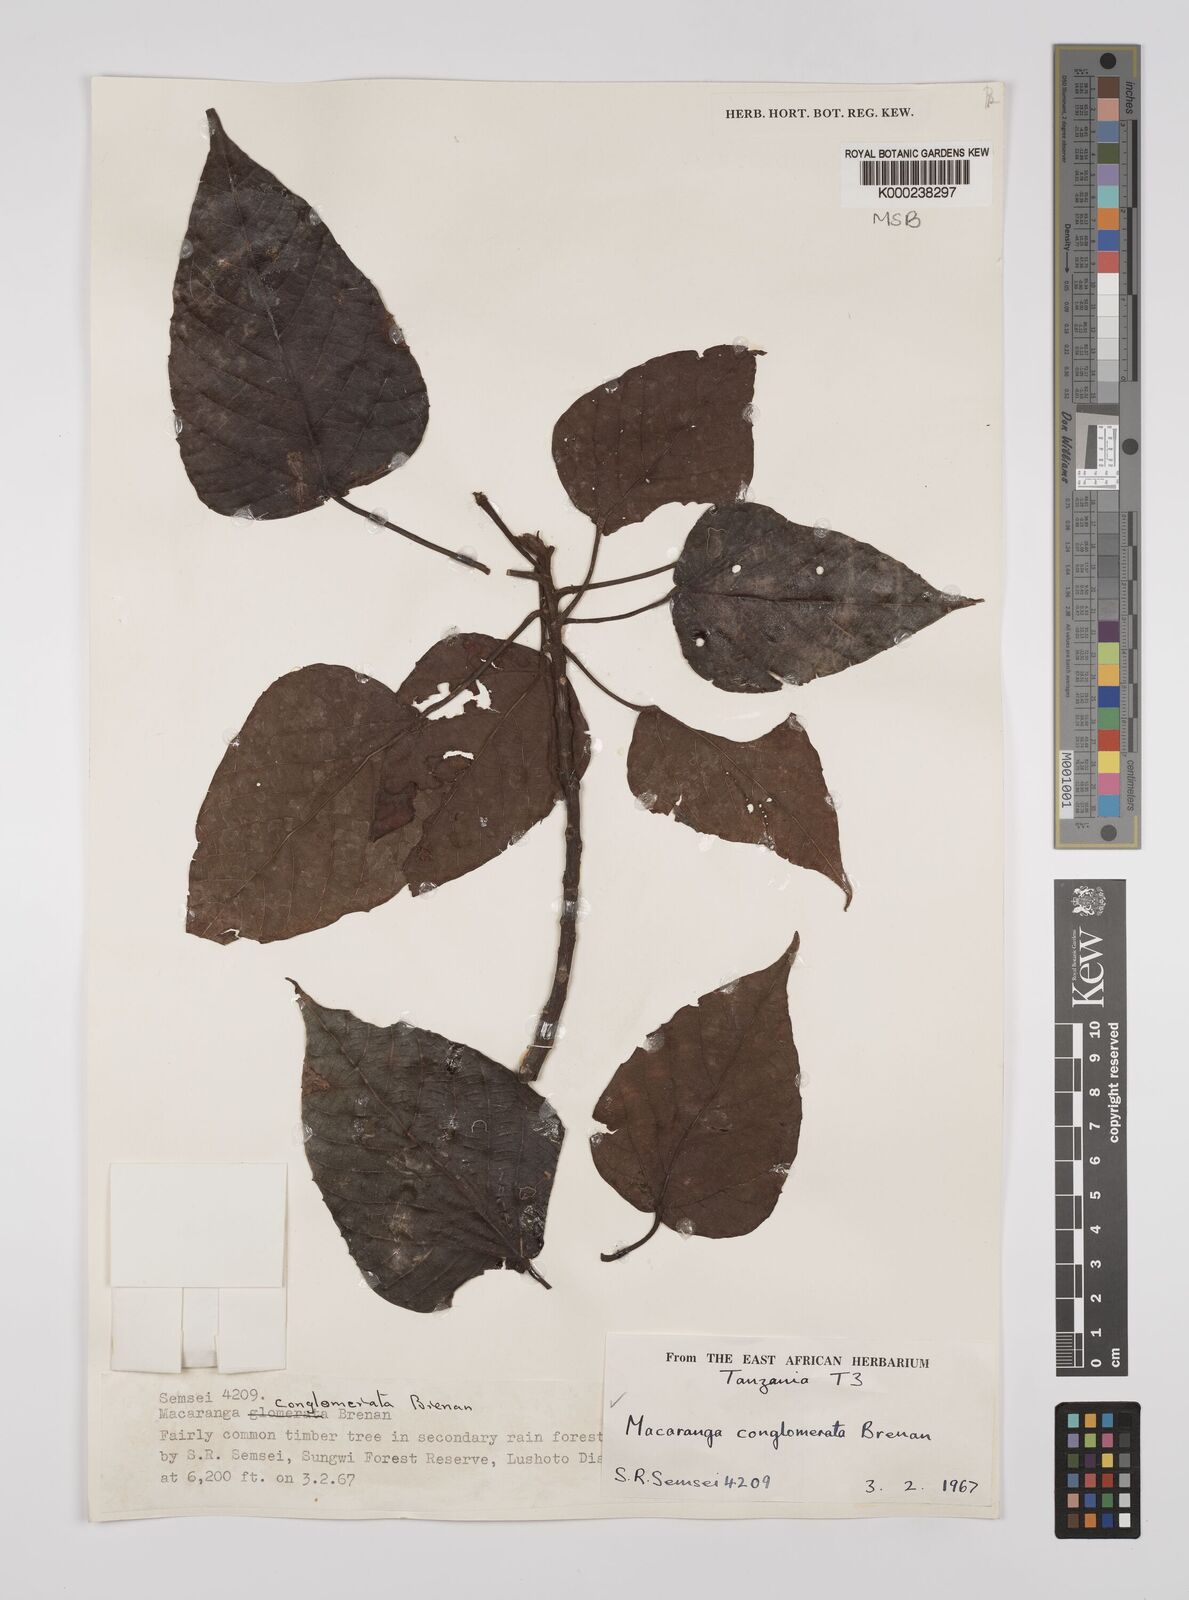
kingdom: Plantae
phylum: Tracheophyta
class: Magnoliopsida
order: Malpighiales
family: Euphorbiaceae
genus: Macaranga
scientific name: Macaranga conglomerata
